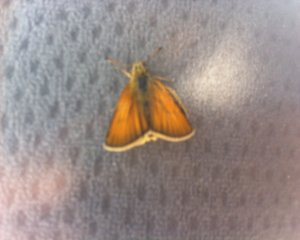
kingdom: Animalia
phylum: Arthropoda
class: Insecta
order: Lepidoptera
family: Hesperiidae
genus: Thymelicus
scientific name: Thymelicus lineola
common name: European Skipper
